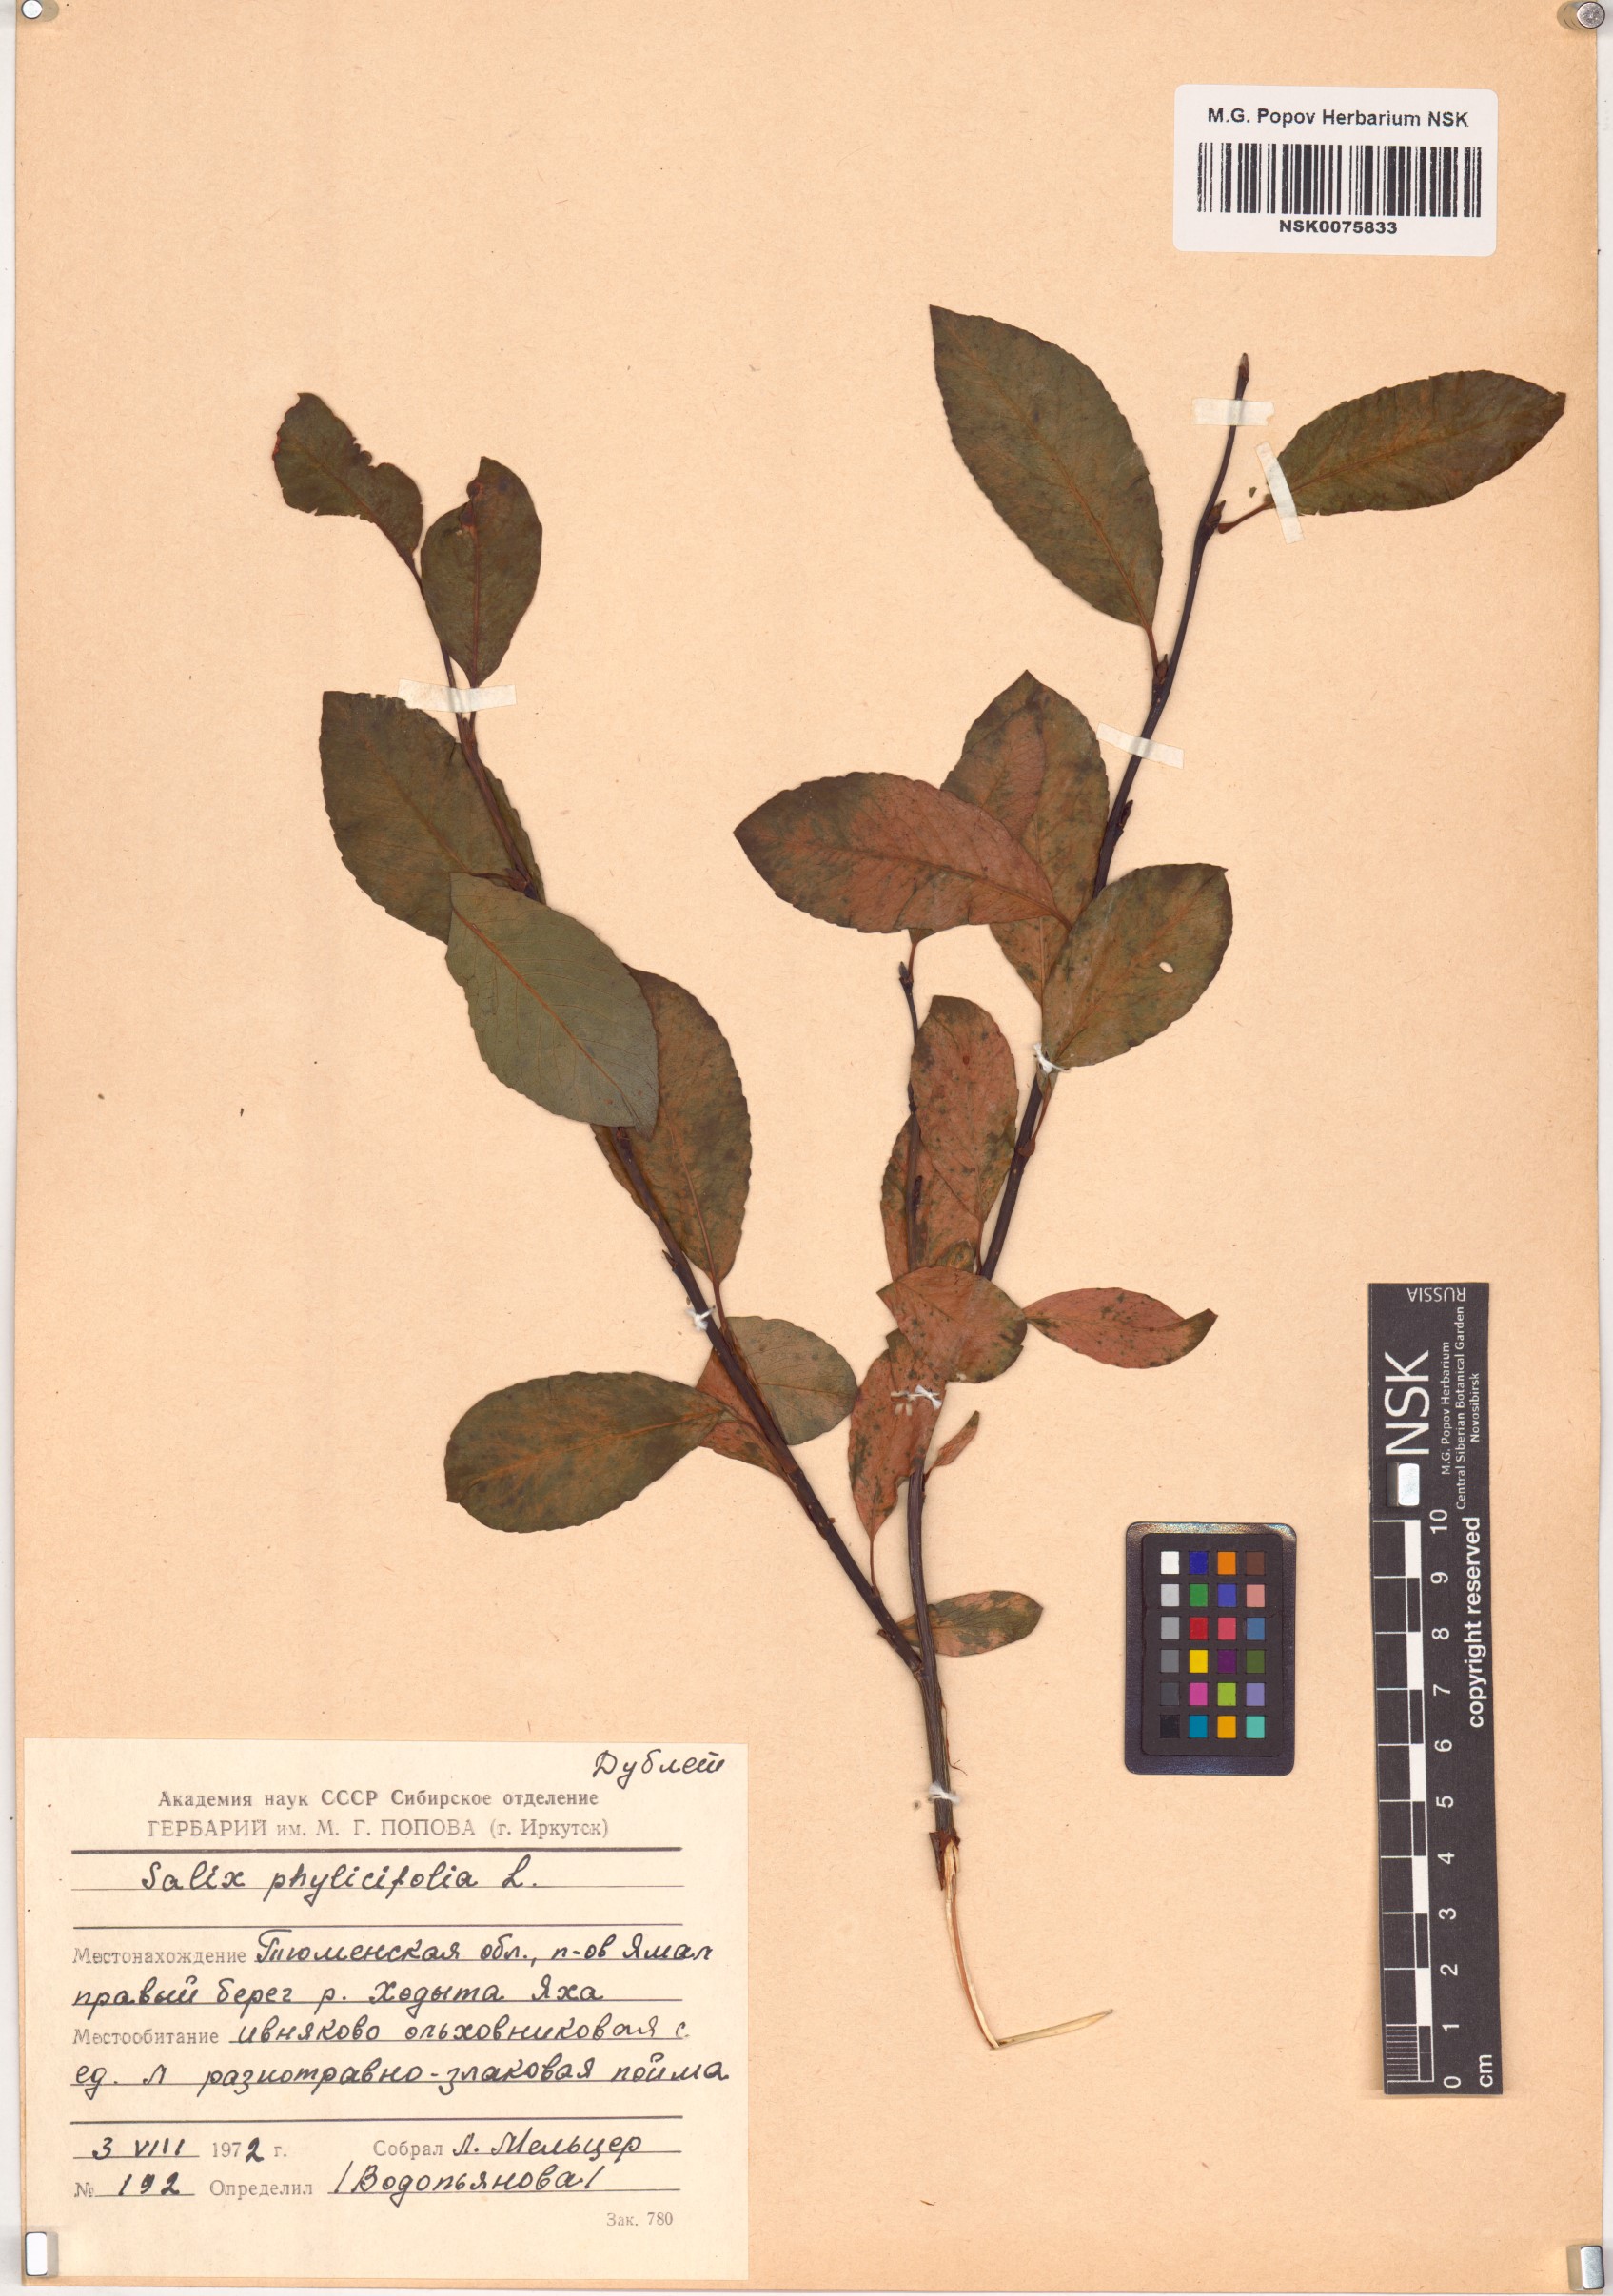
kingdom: Plantae
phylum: Tracheophyta
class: Magnoliopsida
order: Malpighiales
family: Salicaceae
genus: Salix
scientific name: Salix phylicifolia
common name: Tea-leaved willow
